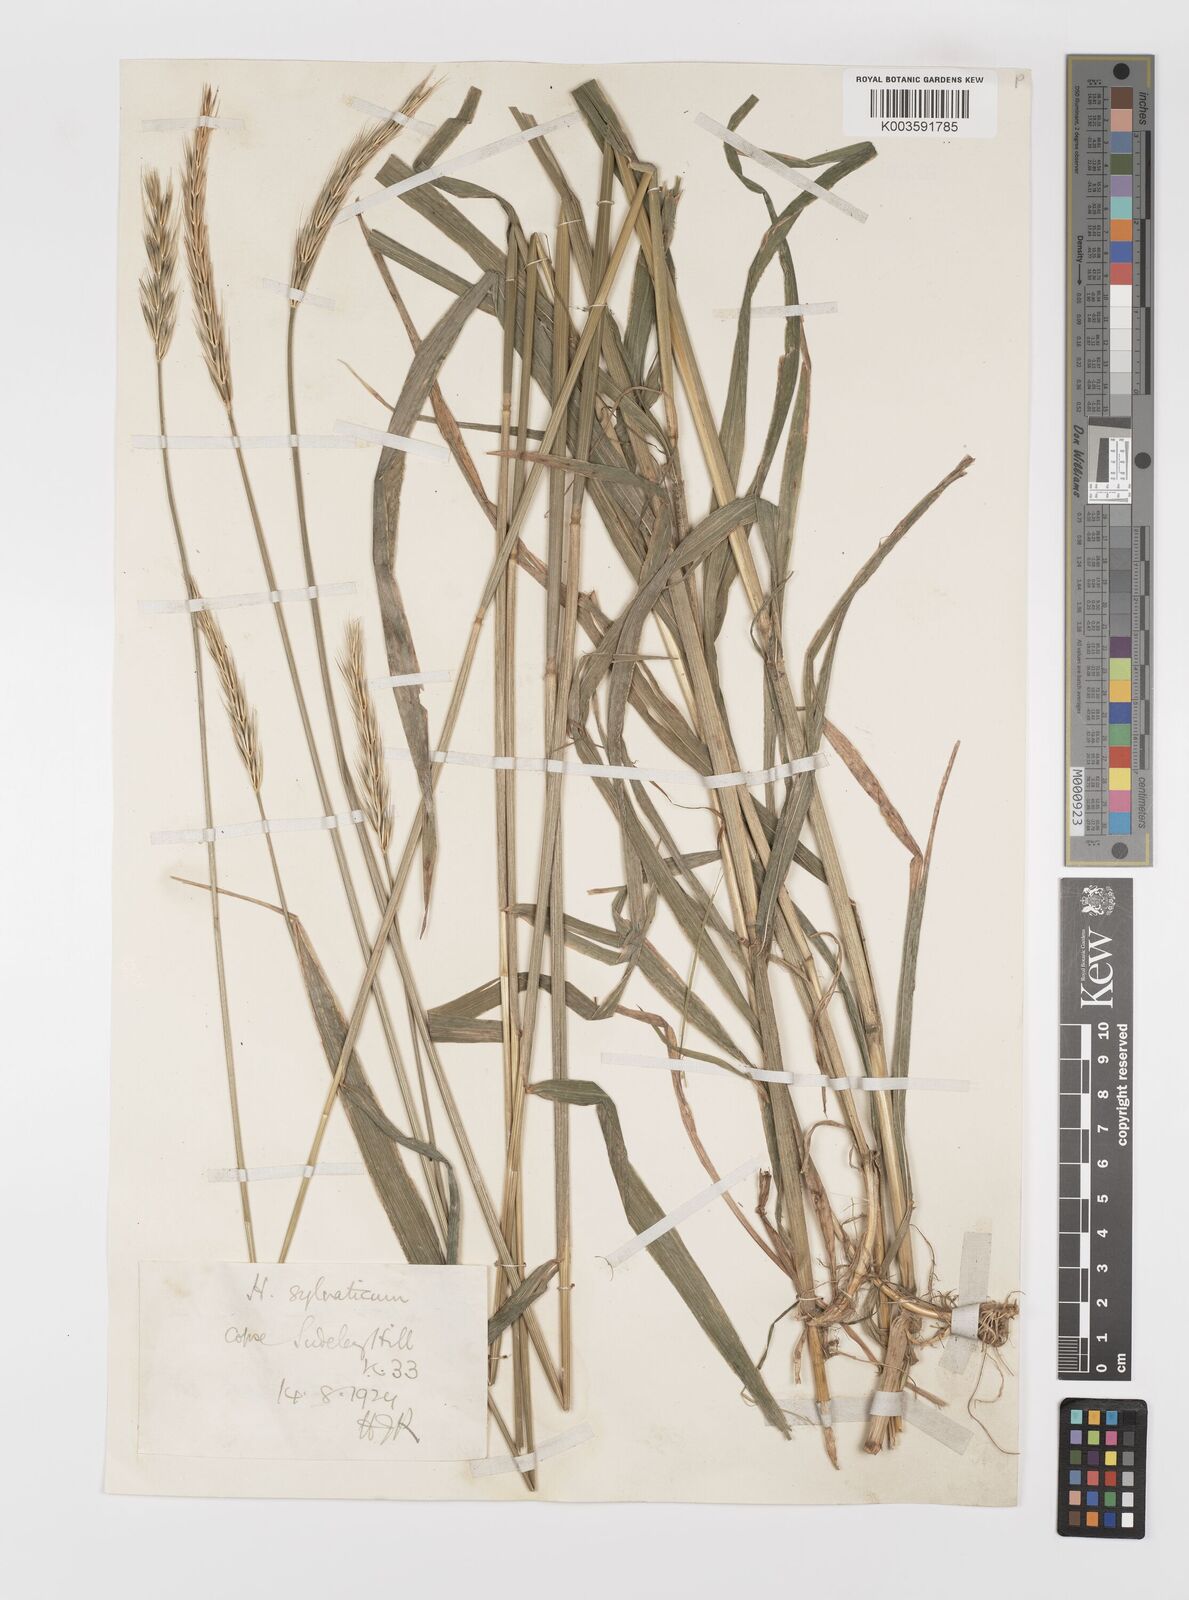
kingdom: Plantae
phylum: Tracheophyta
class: Liliopsida
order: Poales
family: Poaceae
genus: Hordelymus
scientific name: Hordelymus europaeus
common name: Wood-barley
